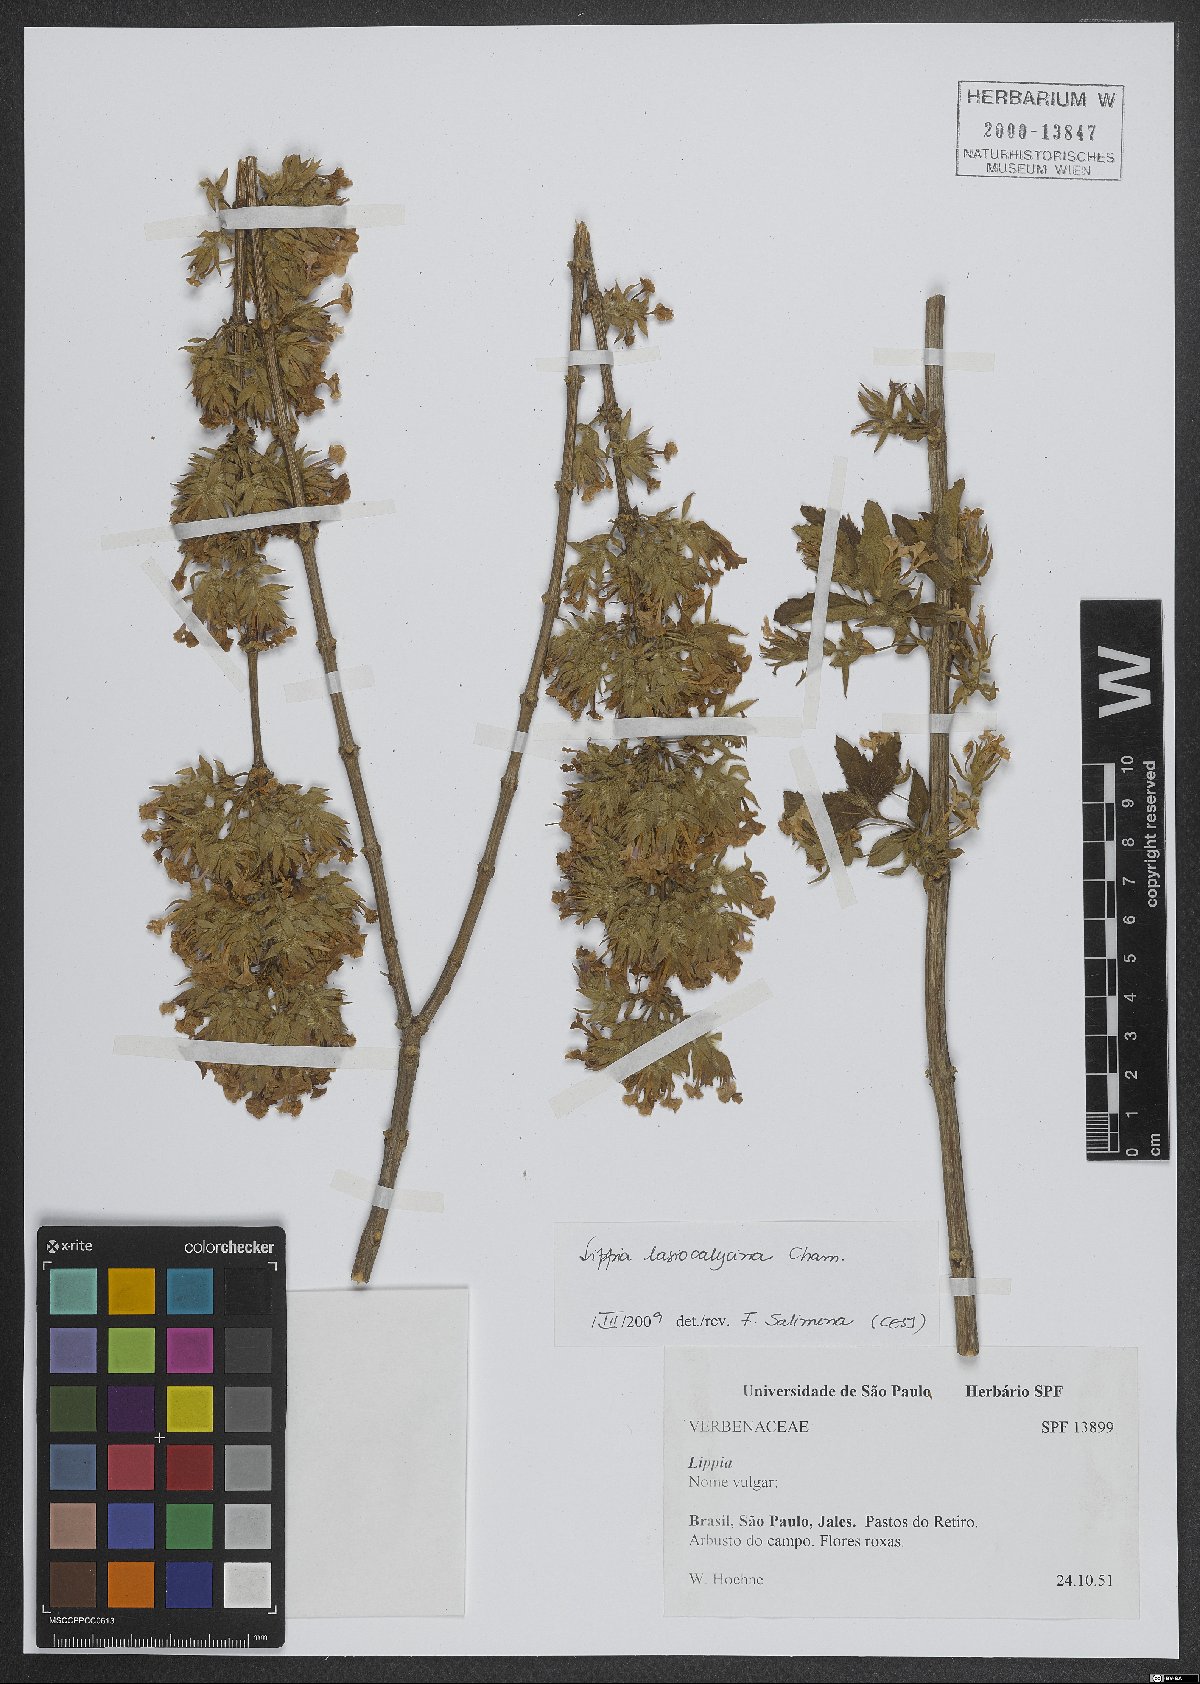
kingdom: Plantae
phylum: Tracheophyta
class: Magnoliopsida
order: Lamiales
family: Verbenaceae
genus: Lippia
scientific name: Lippia lasiocalycina
